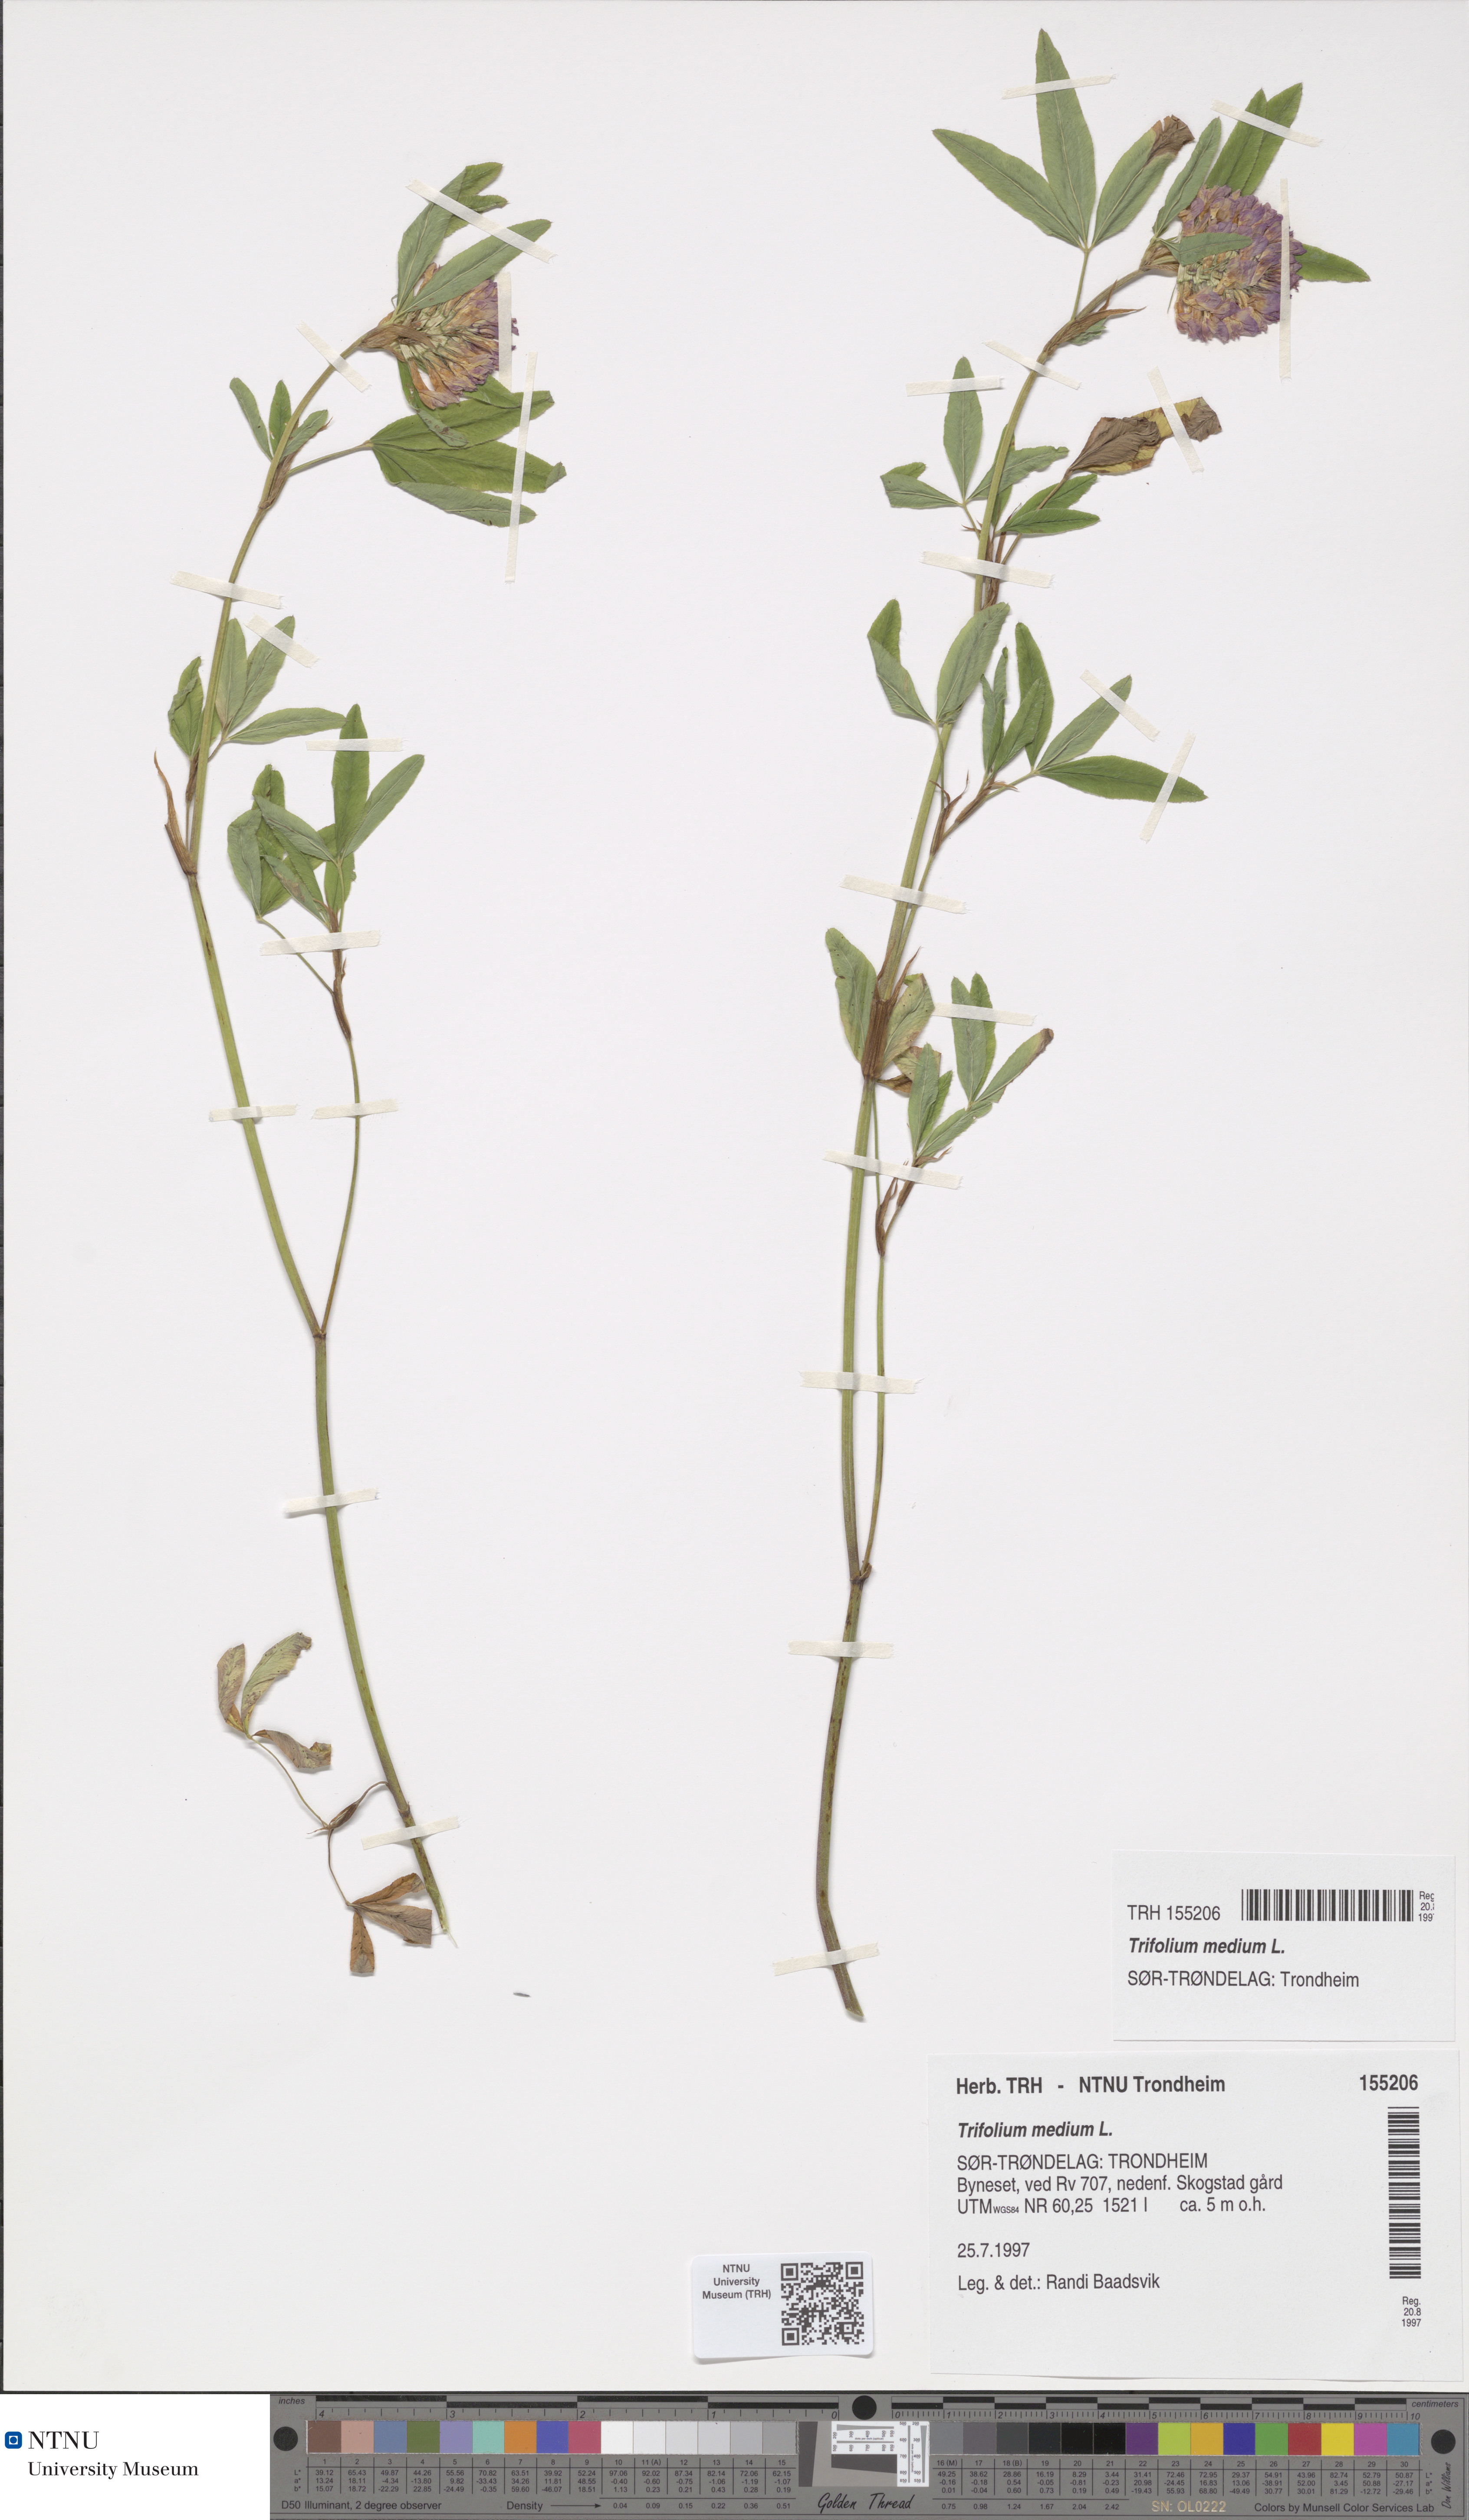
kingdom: Plantae
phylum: Tracheophyta
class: Magnoliopsida
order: Fabales
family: Fabaceae
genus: Trifolium
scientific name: Trifolium medium
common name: Zigzag clover
